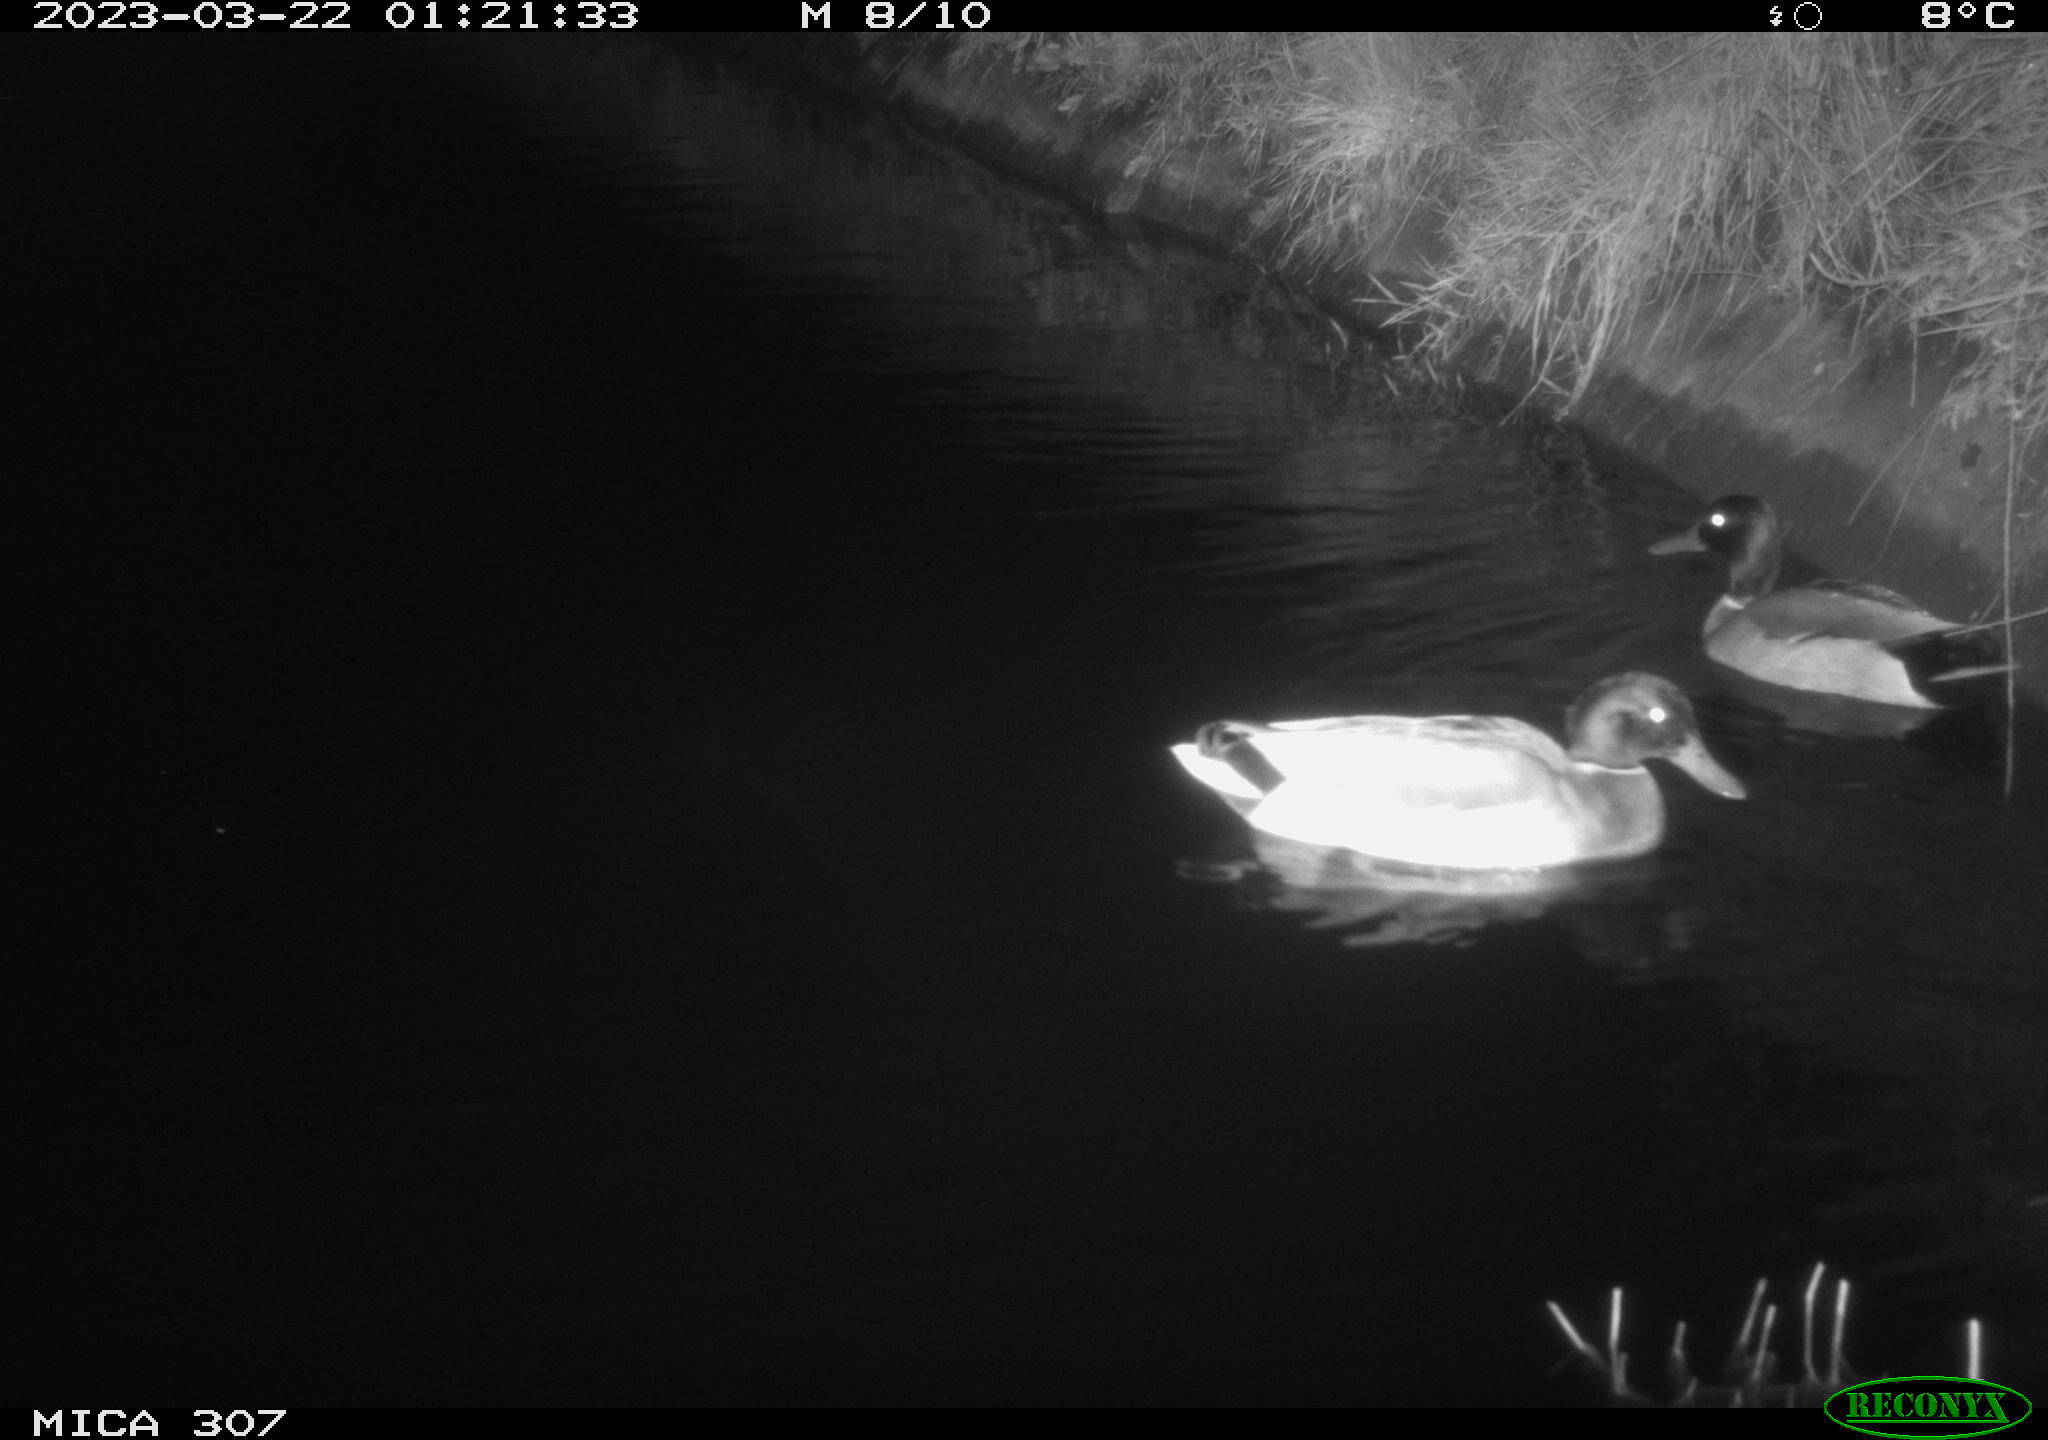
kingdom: Animalia
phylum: Chordata
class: Aves
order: Anseriformes
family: Anatidae
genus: Anas
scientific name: Anas
